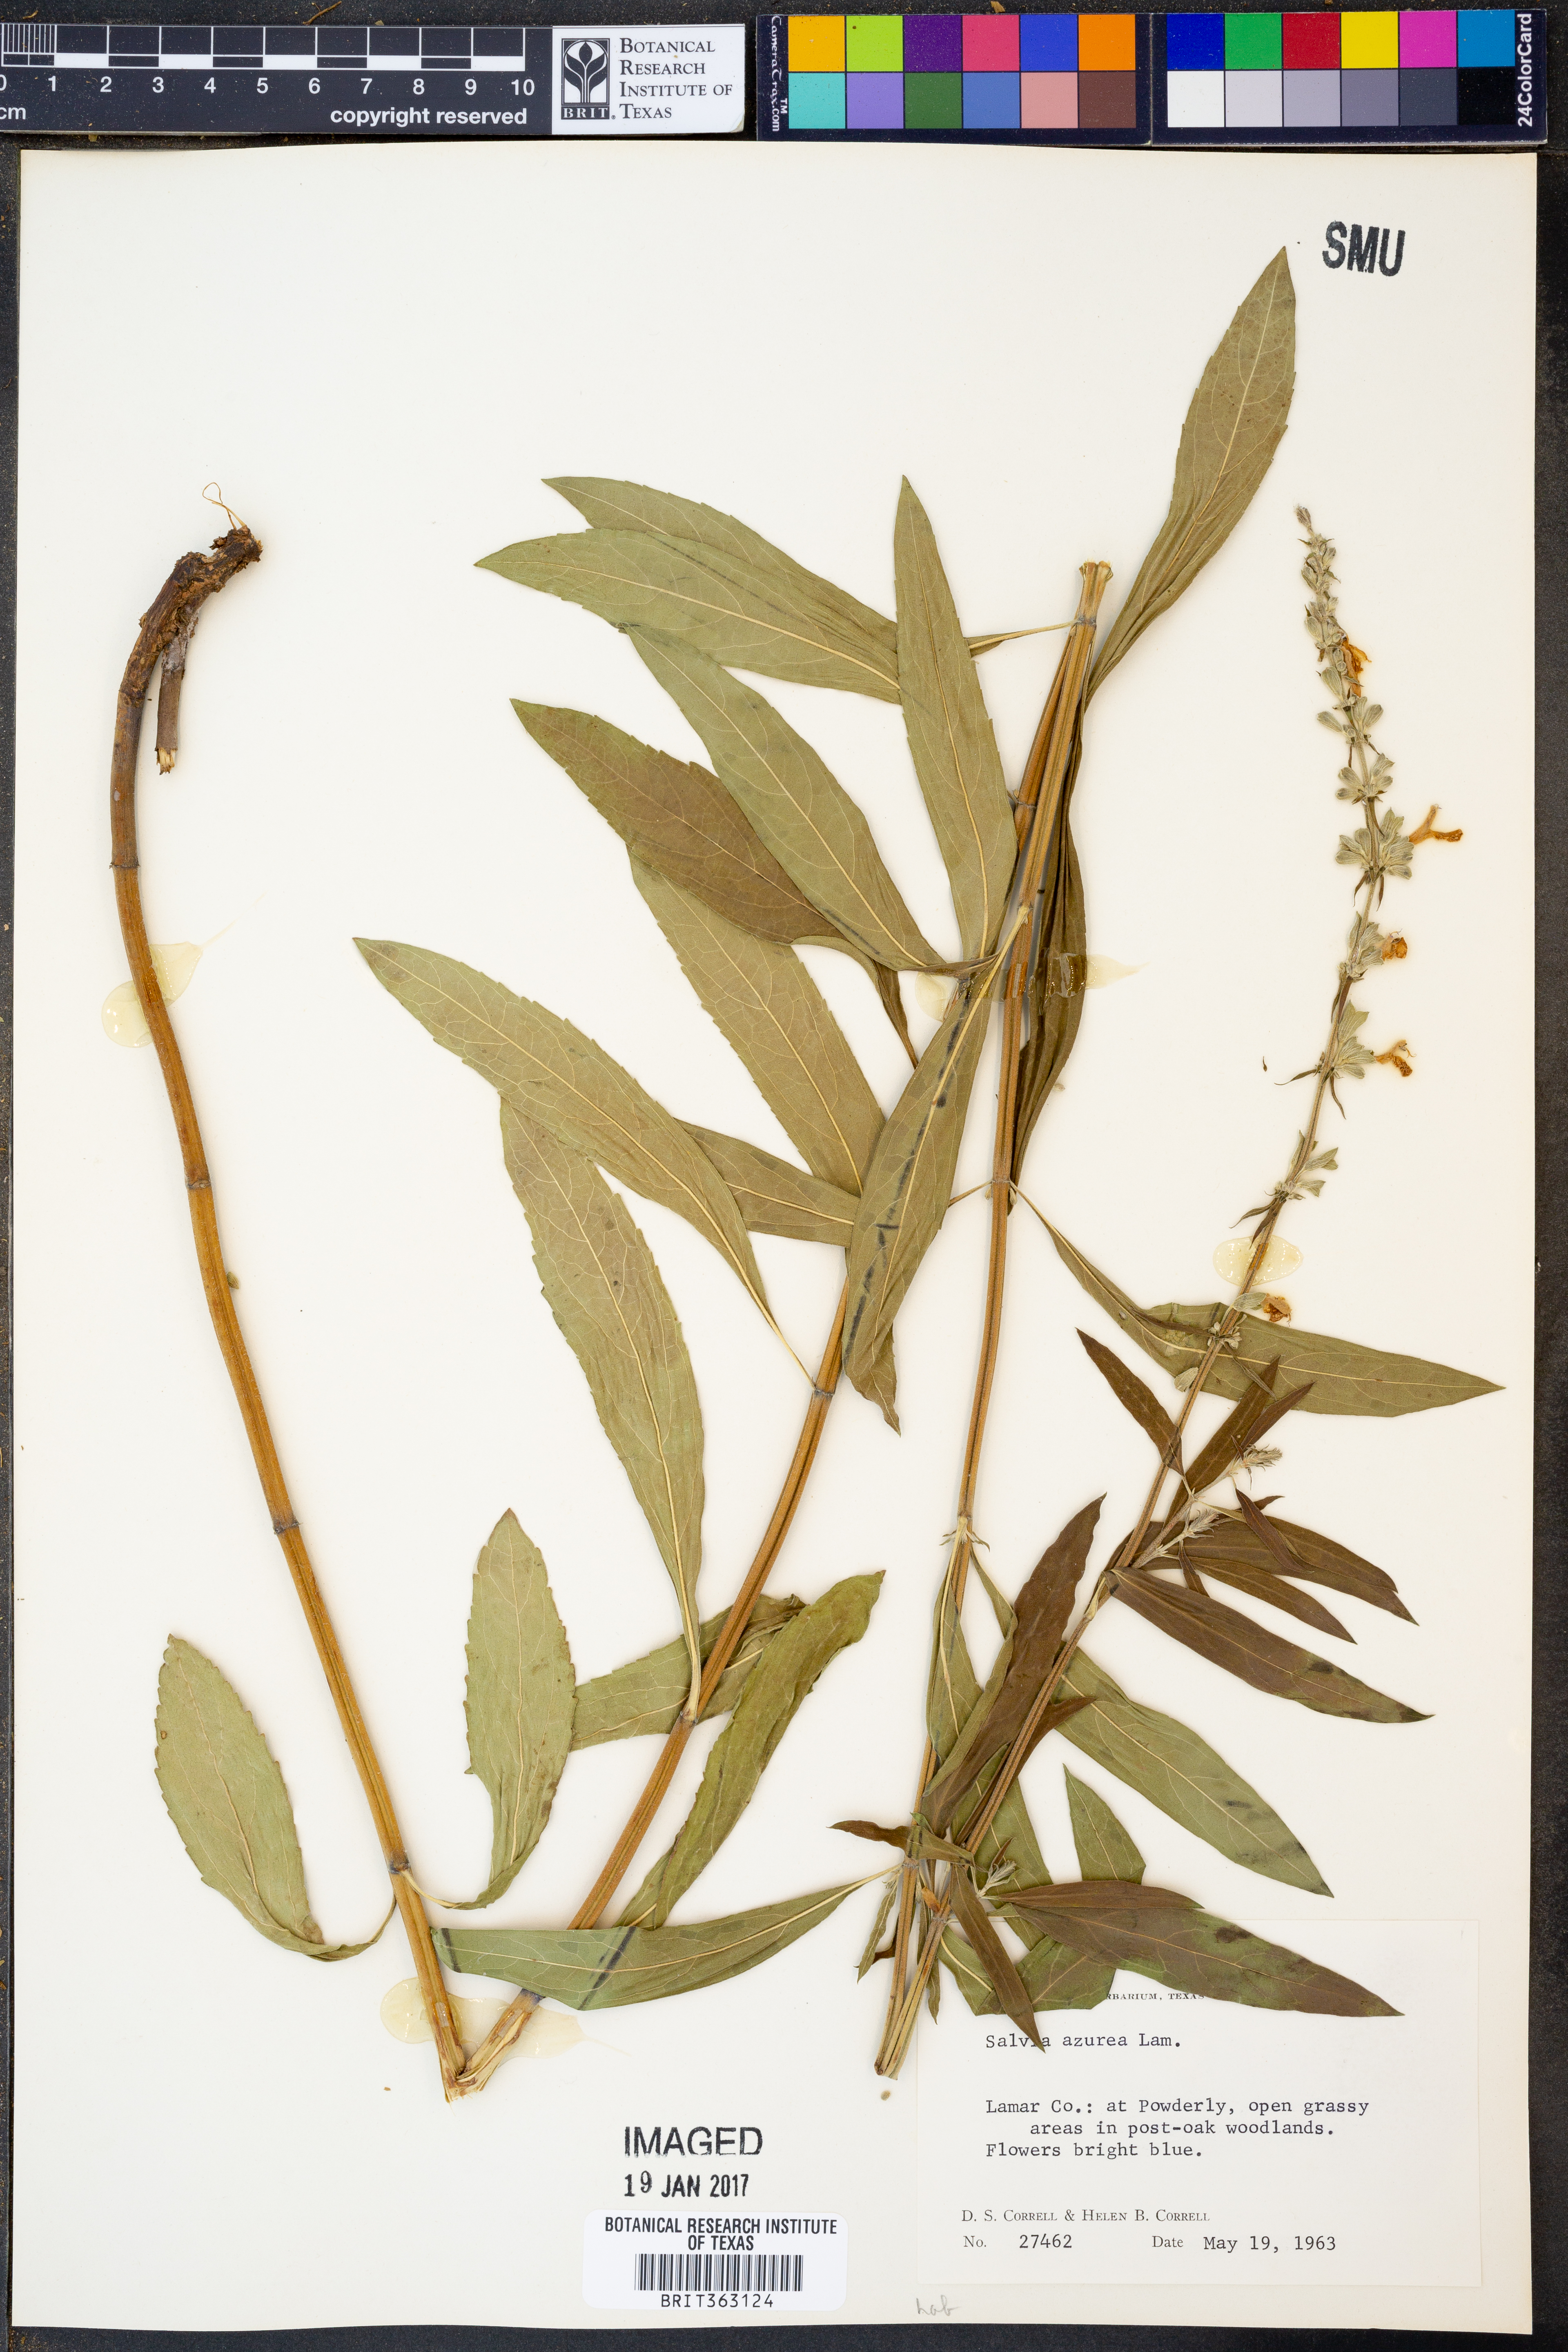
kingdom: Plantae
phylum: Tracheophyta
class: Magnoliopsida
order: Lamiales
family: Lamiaceae
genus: Salvia
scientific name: Salvia azurea
